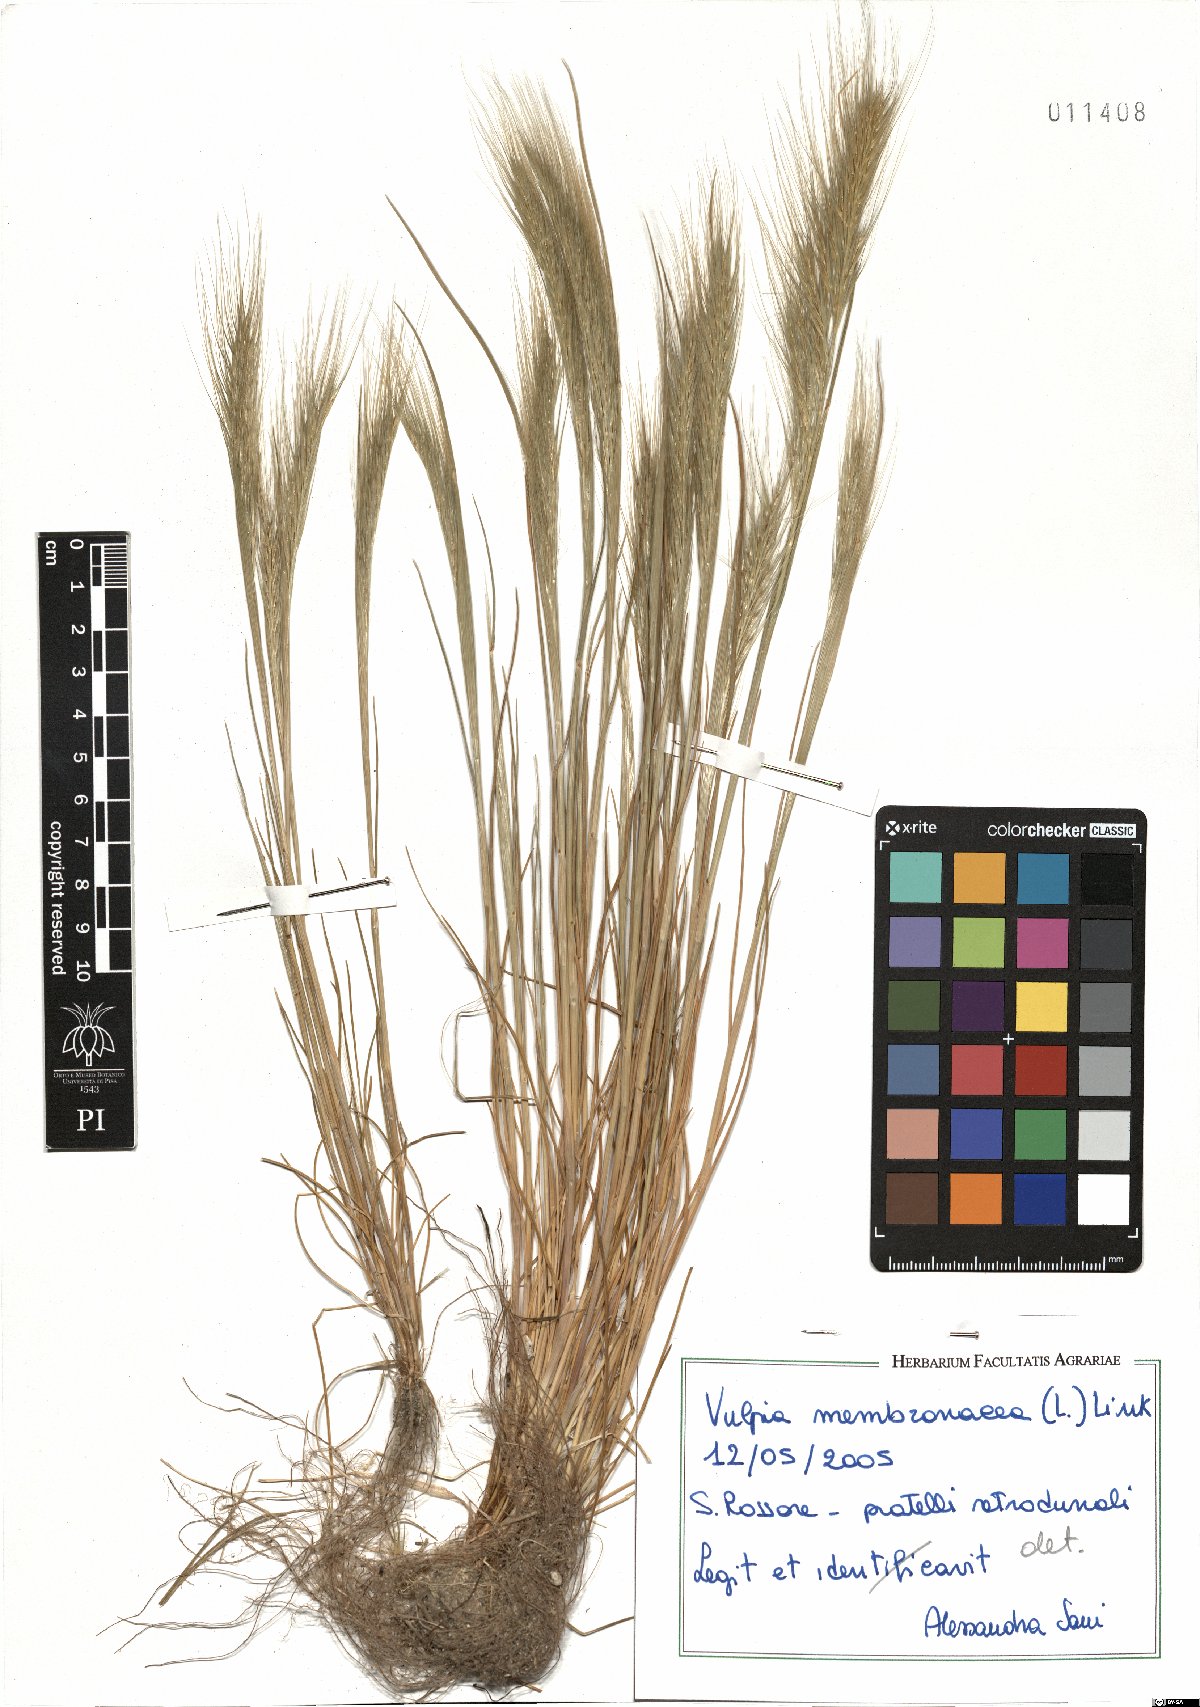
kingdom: Plantae
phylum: Tracheophyta
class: Liliopsida
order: Poales
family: Poaceae
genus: Festuca
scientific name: Festuca membranacea
